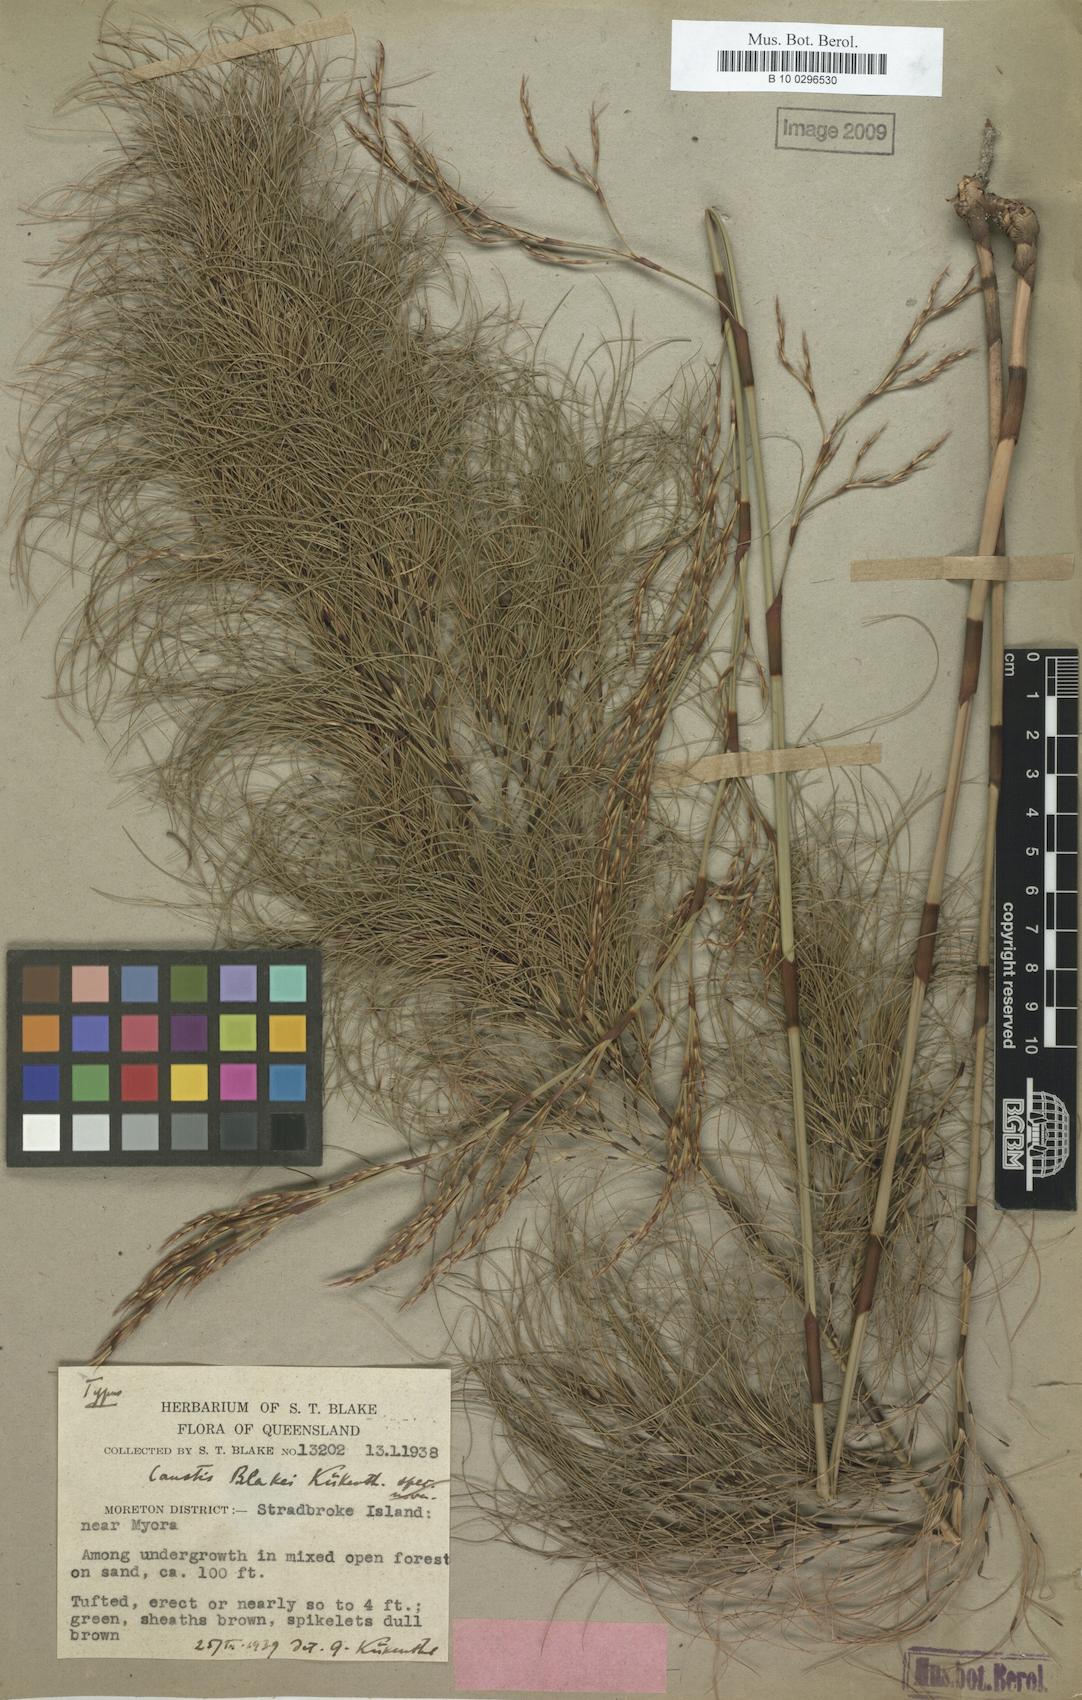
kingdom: Plantae
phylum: Tracheophyta
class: Liliopsida
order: Poales
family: Cyperaceae
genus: Caustis
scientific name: Caustis blakei
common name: Foxtail-fern
